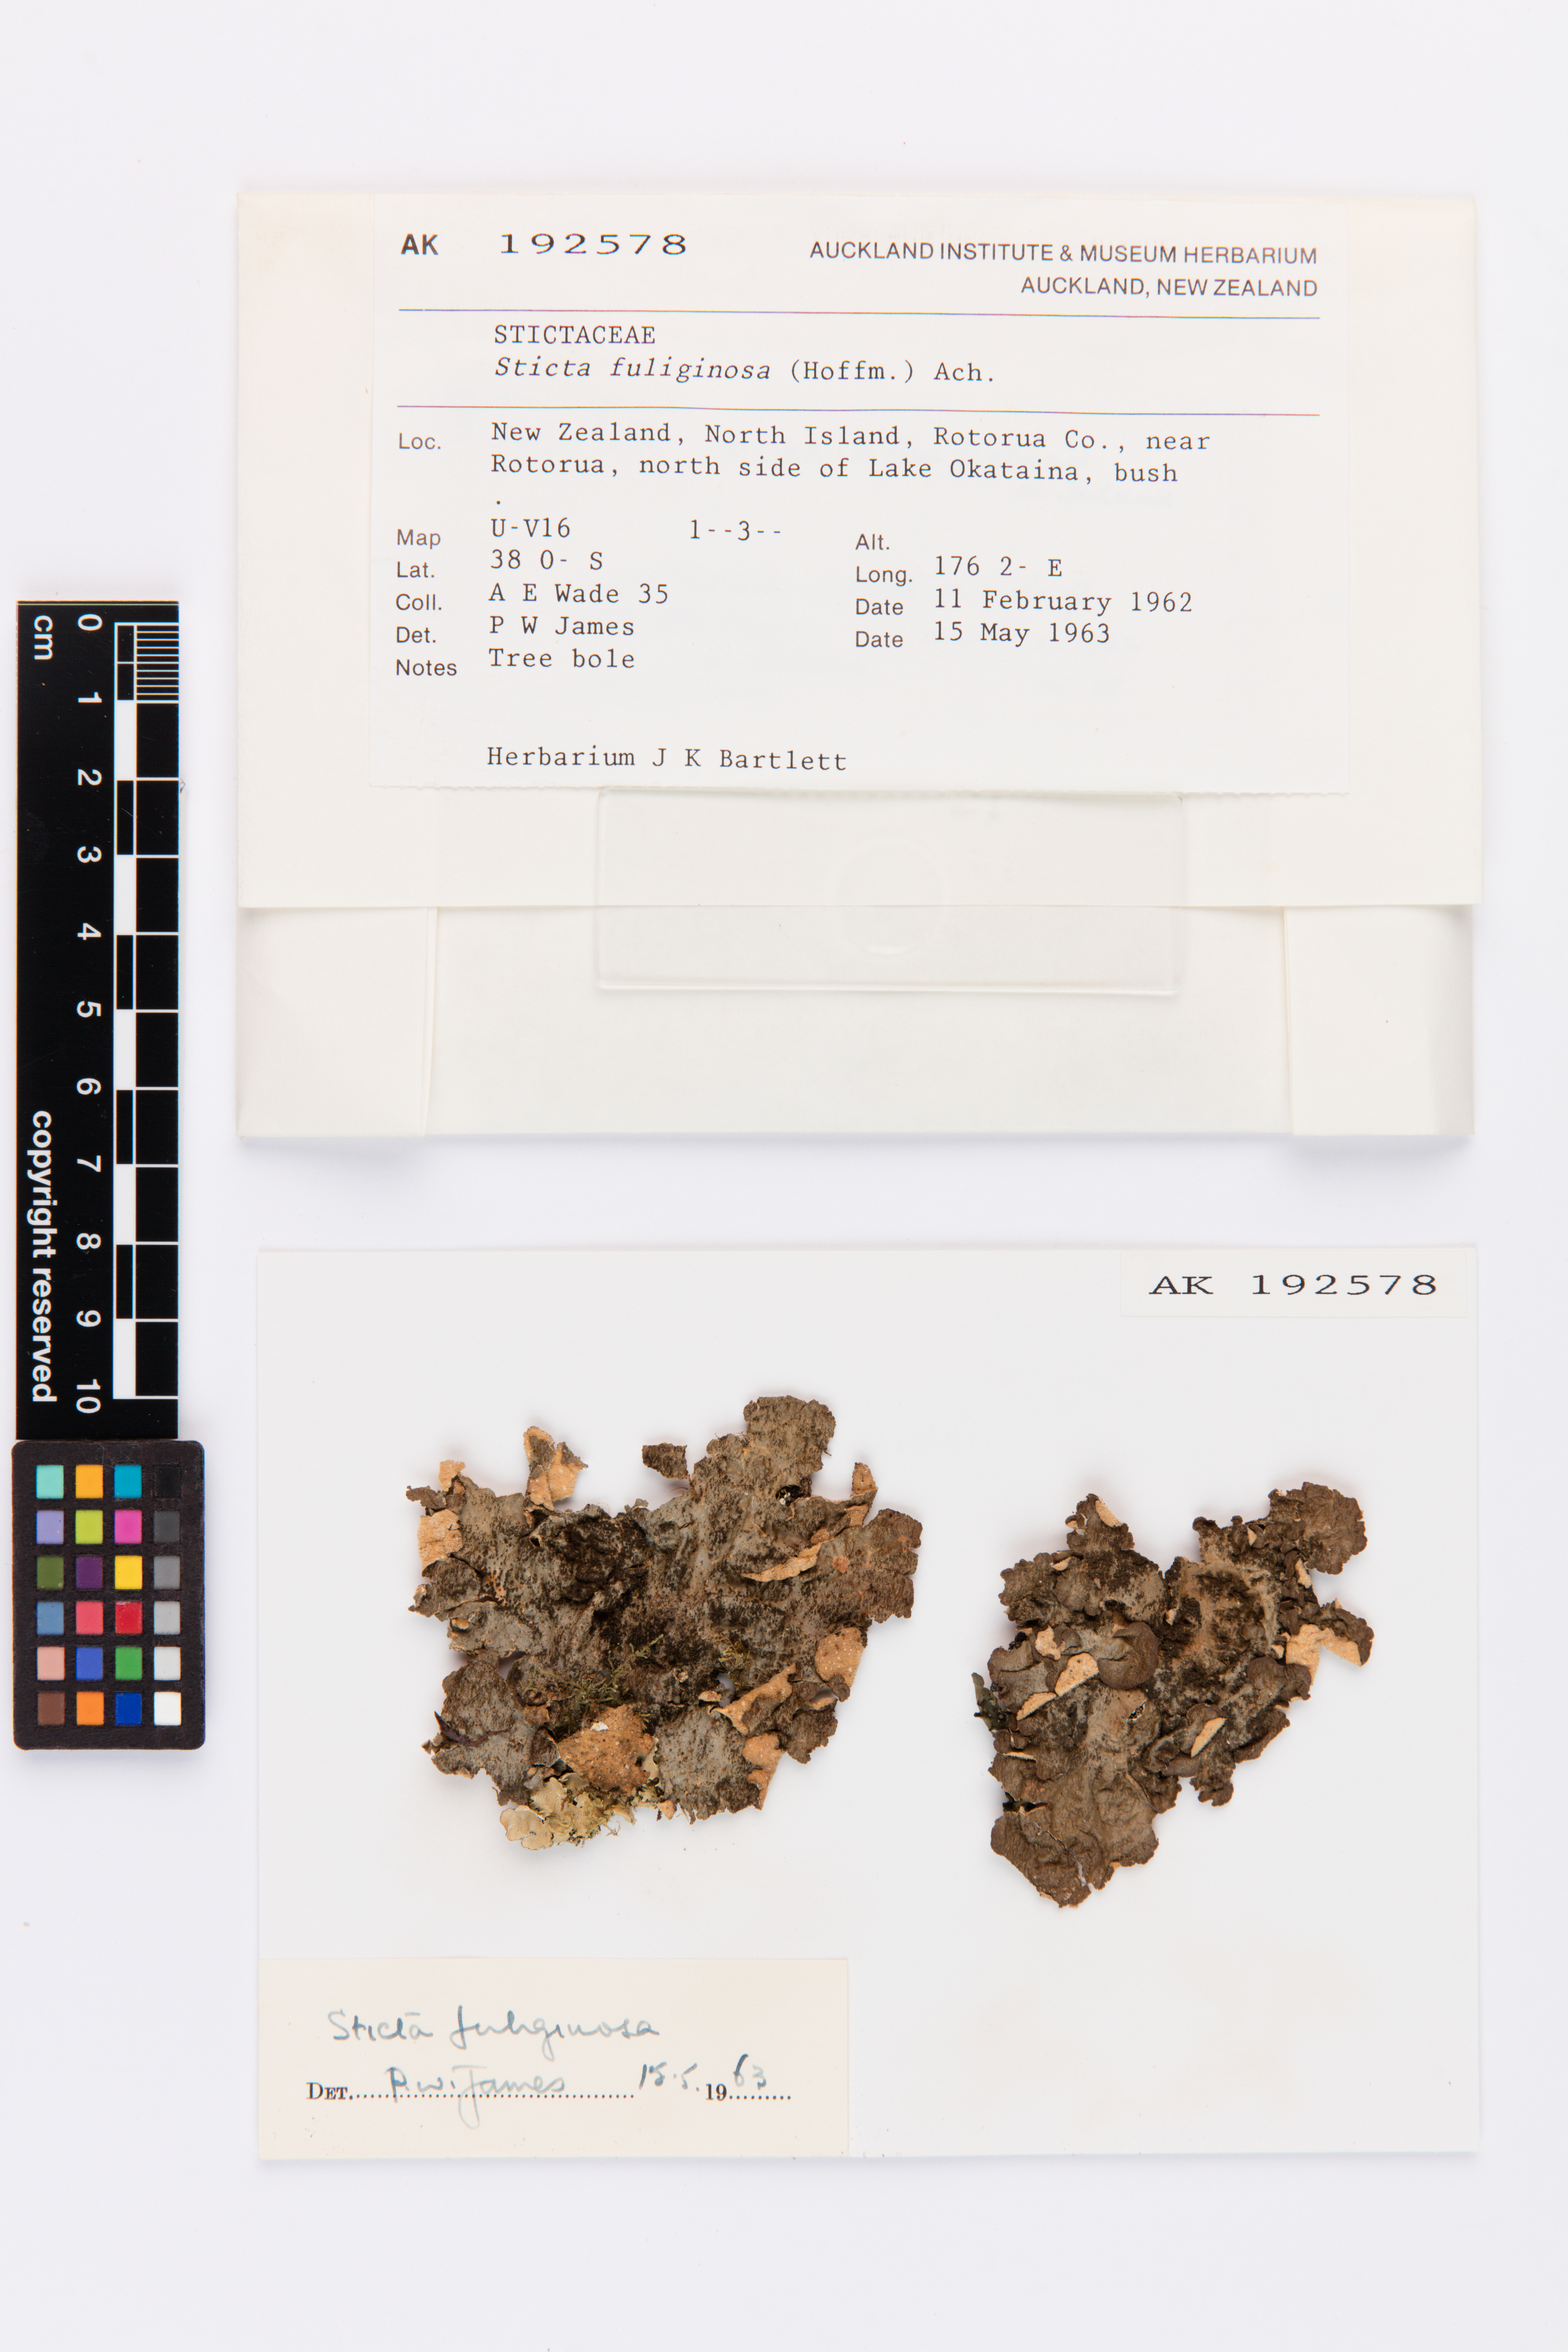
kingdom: Fungi
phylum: Ascomycota
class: Lecanoromycetes
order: Peltigerales
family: Lobariaceae
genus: Sticta
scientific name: Sticta fuliginosa
